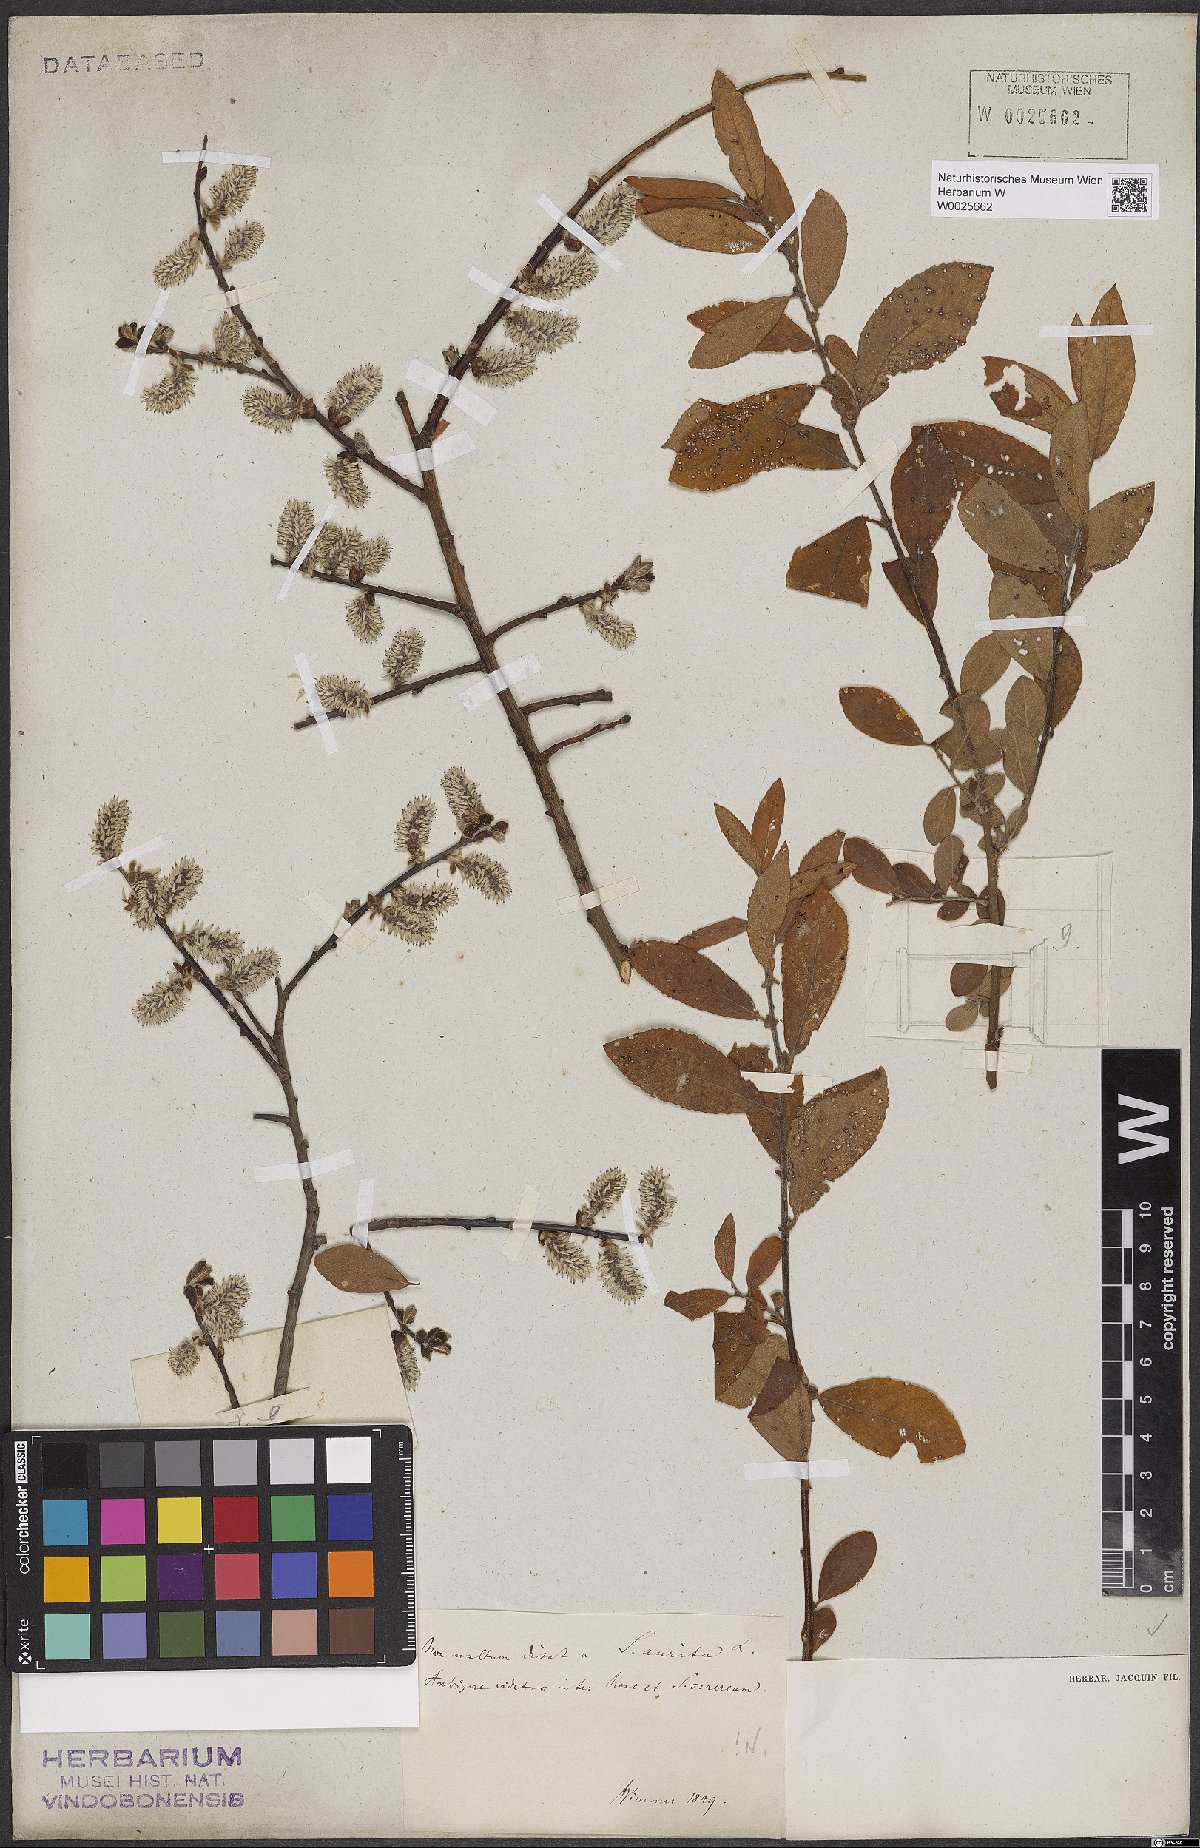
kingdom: Plantae
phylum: Tracheophyta
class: Magnoliopsida
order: Malpighiales
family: Salicaceae
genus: Salix
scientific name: Salix aurita
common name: Eared willow
